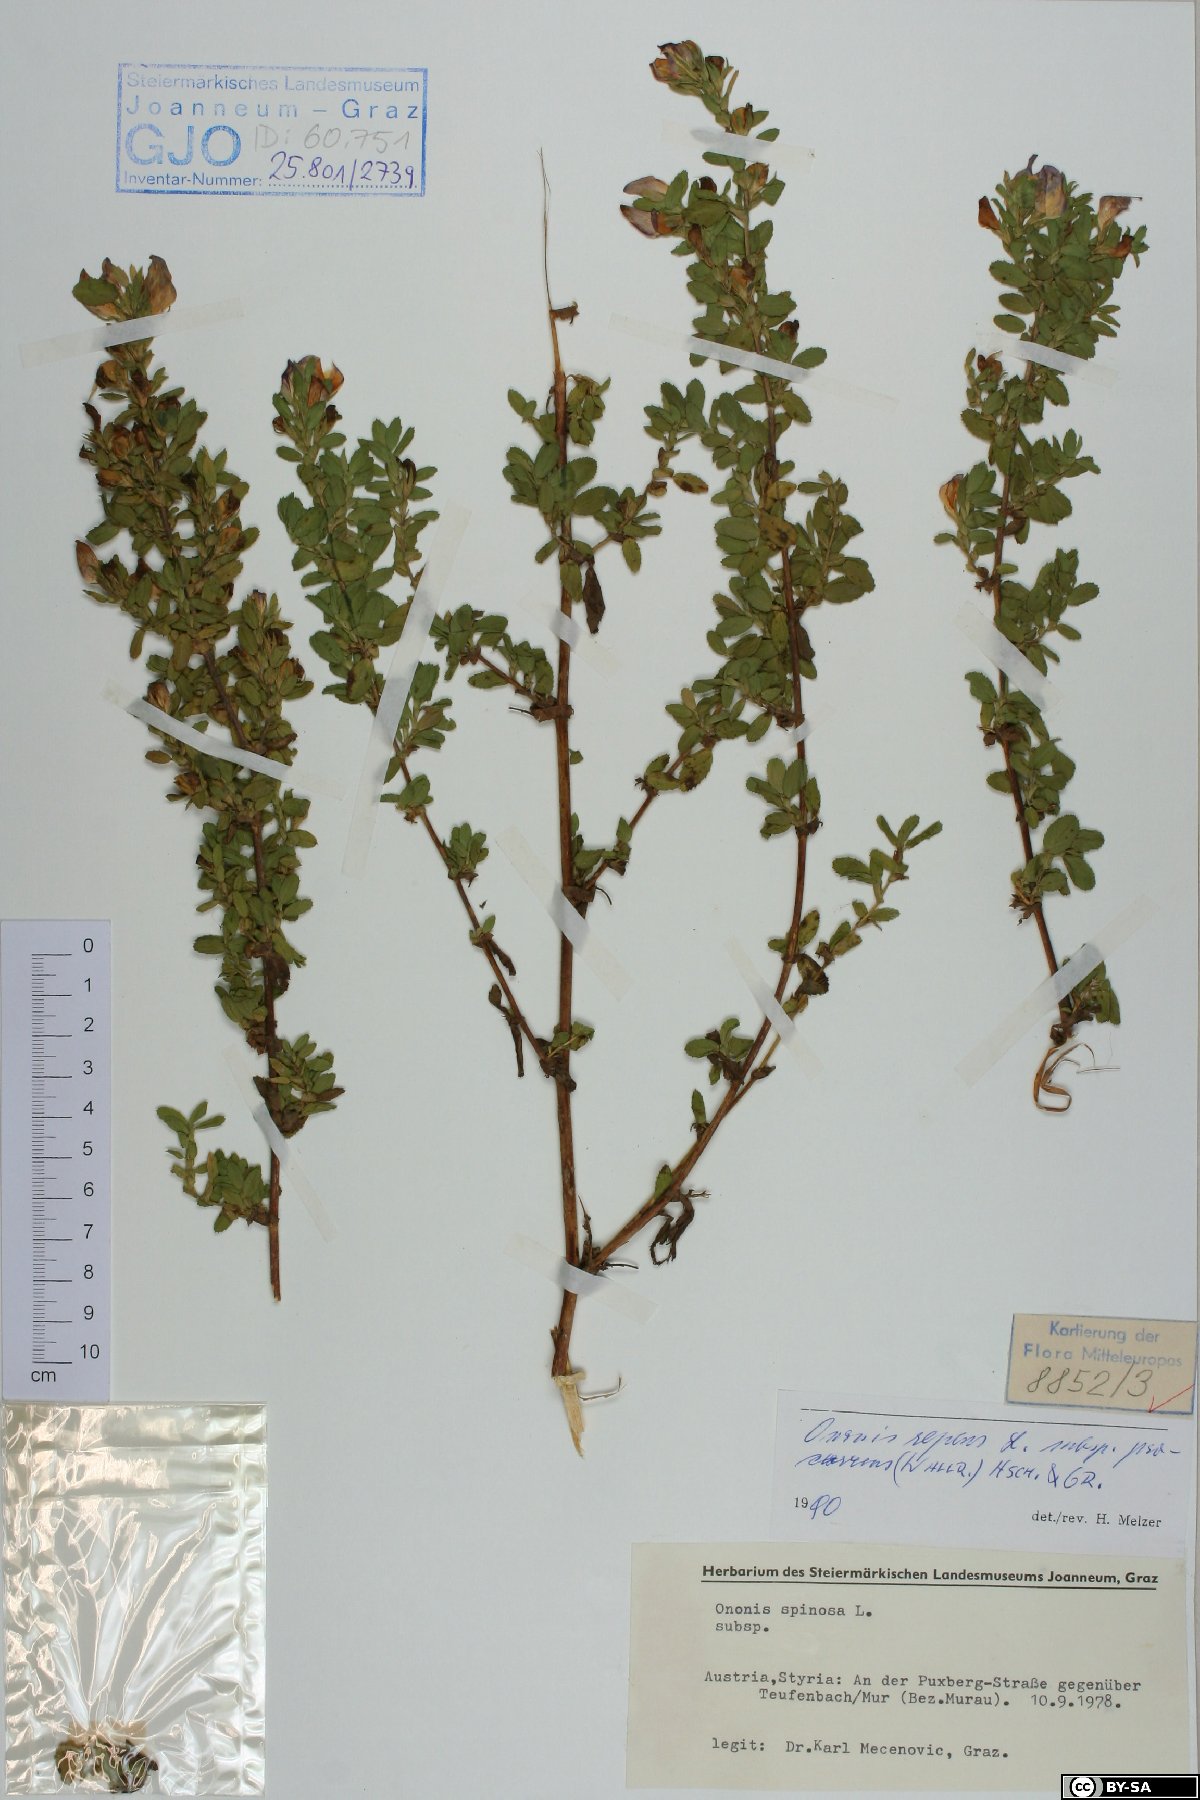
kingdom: Plantae
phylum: Tracheophyta
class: Magnoliopsida
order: Fabales
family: Fabaceae
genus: Ononis
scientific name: Ononis spinosa
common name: Spiny restharrow
